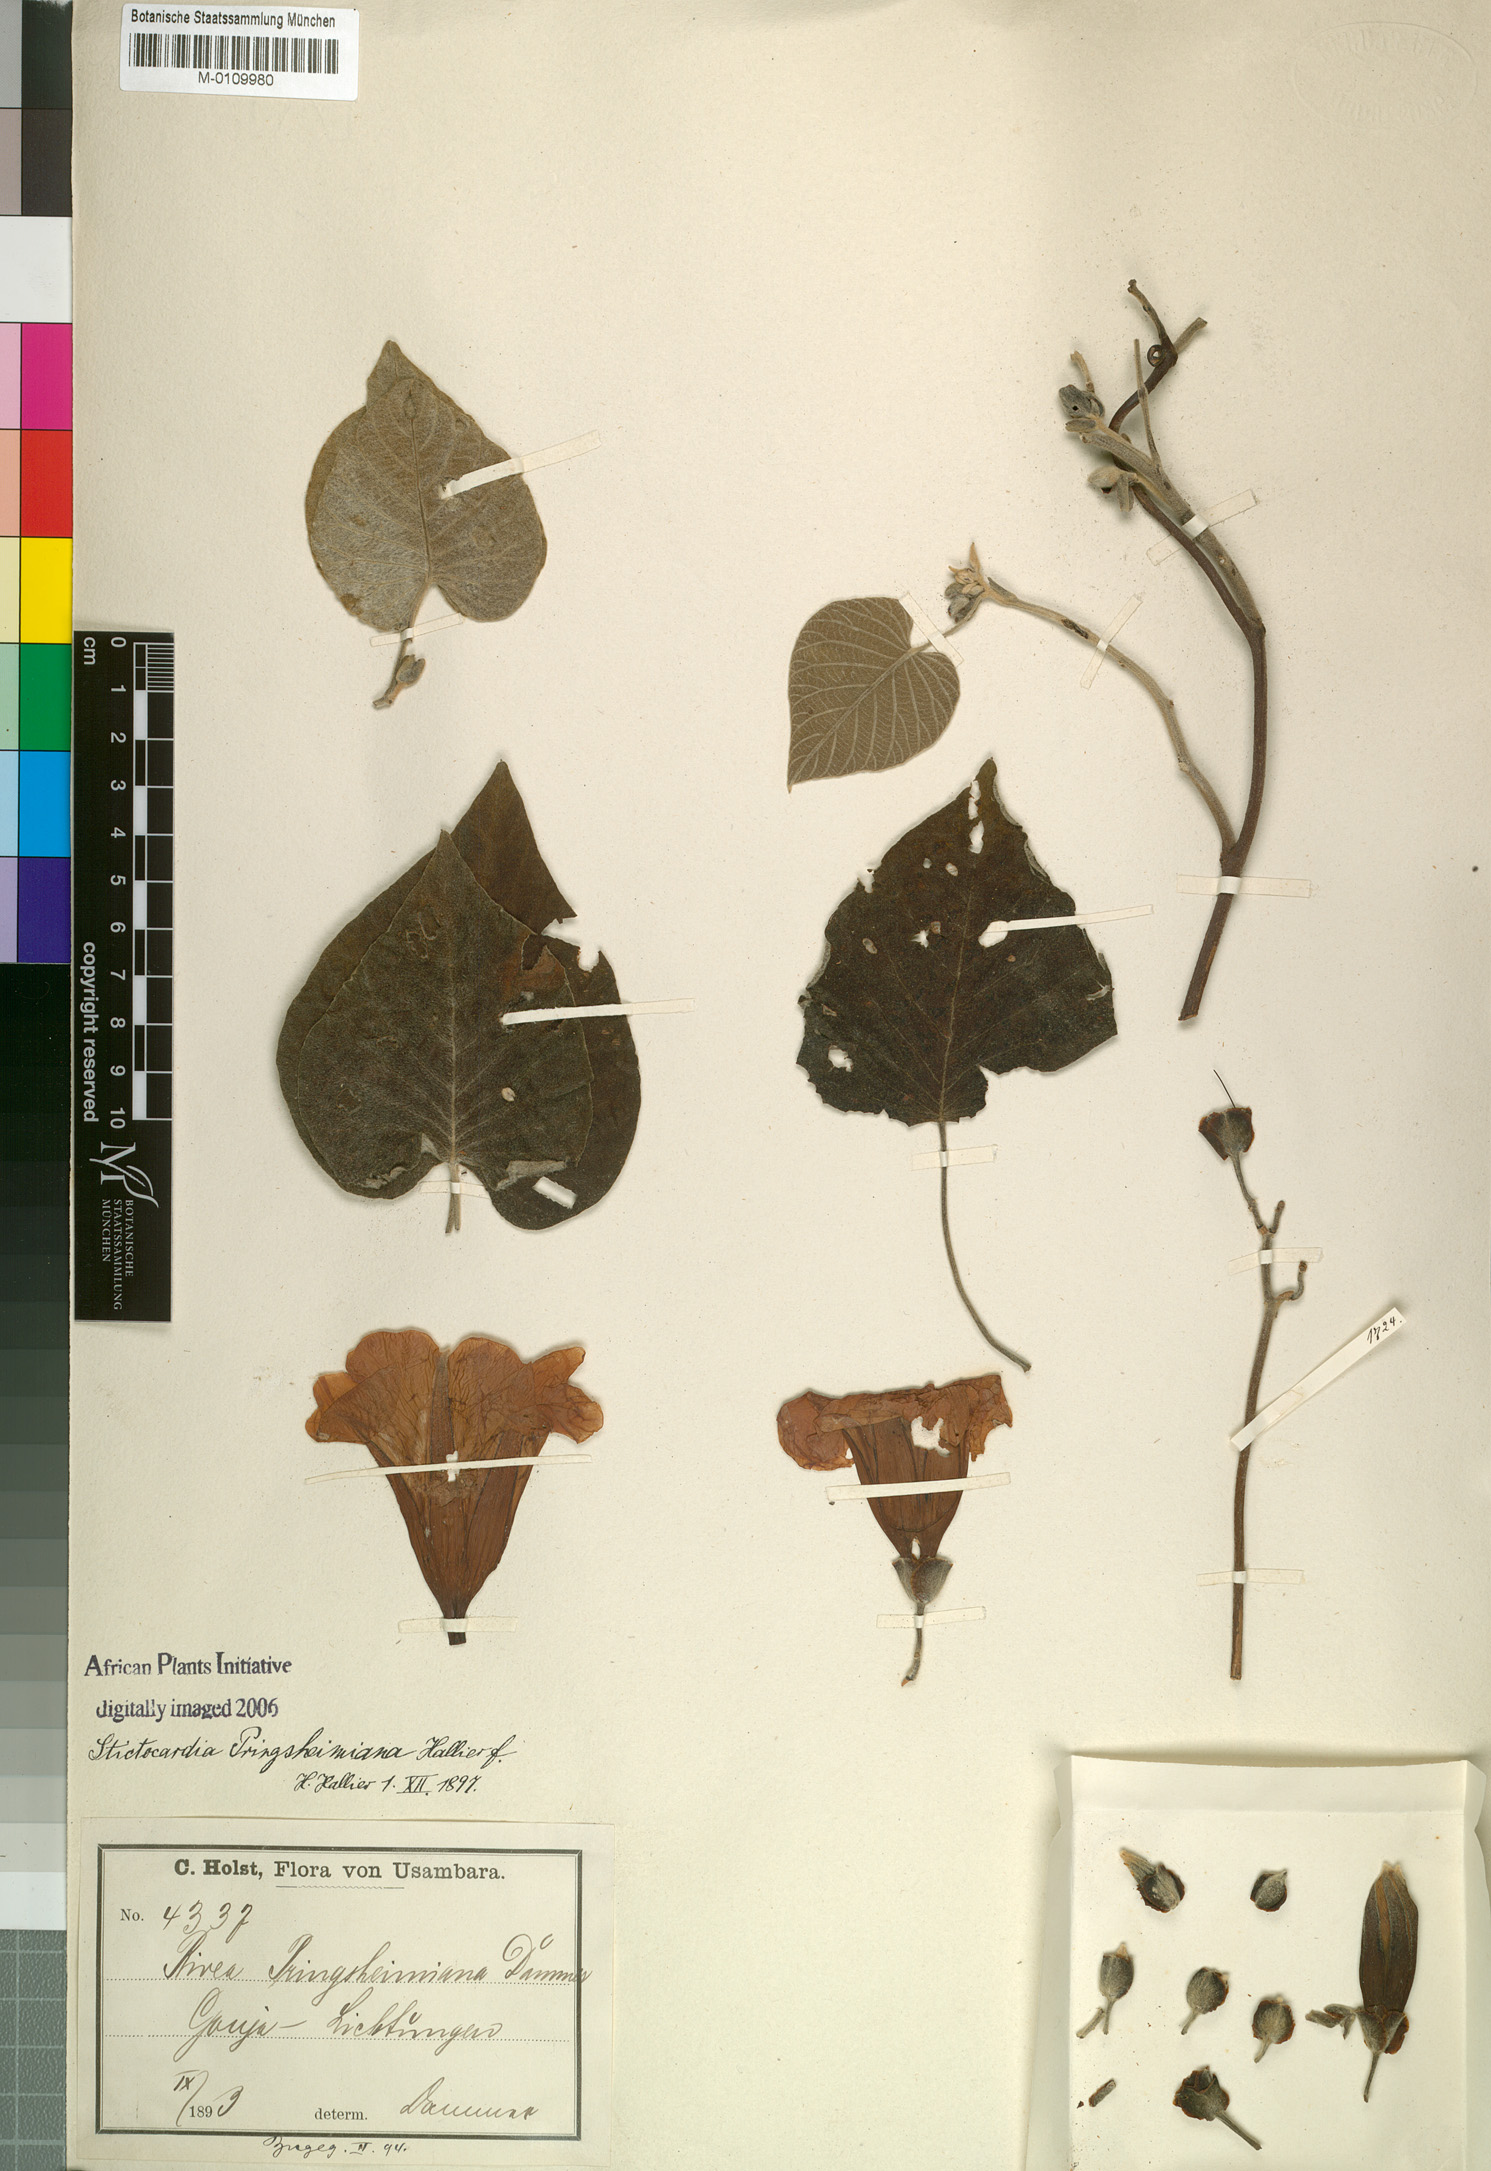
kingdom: Plantae
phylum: Tracheophyta
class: Magnoliopsida
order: Solanales
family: Convolvulaceae
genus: Stictocardia
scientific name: Stictocardia laxiflora
